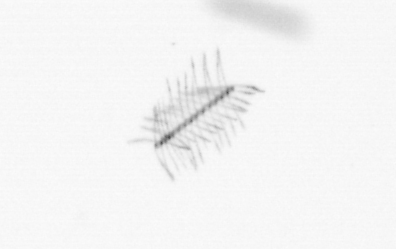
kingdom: Chromista
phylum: Ochrophyta
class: Bacillariophyceae
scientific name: Bacillariophyceae
